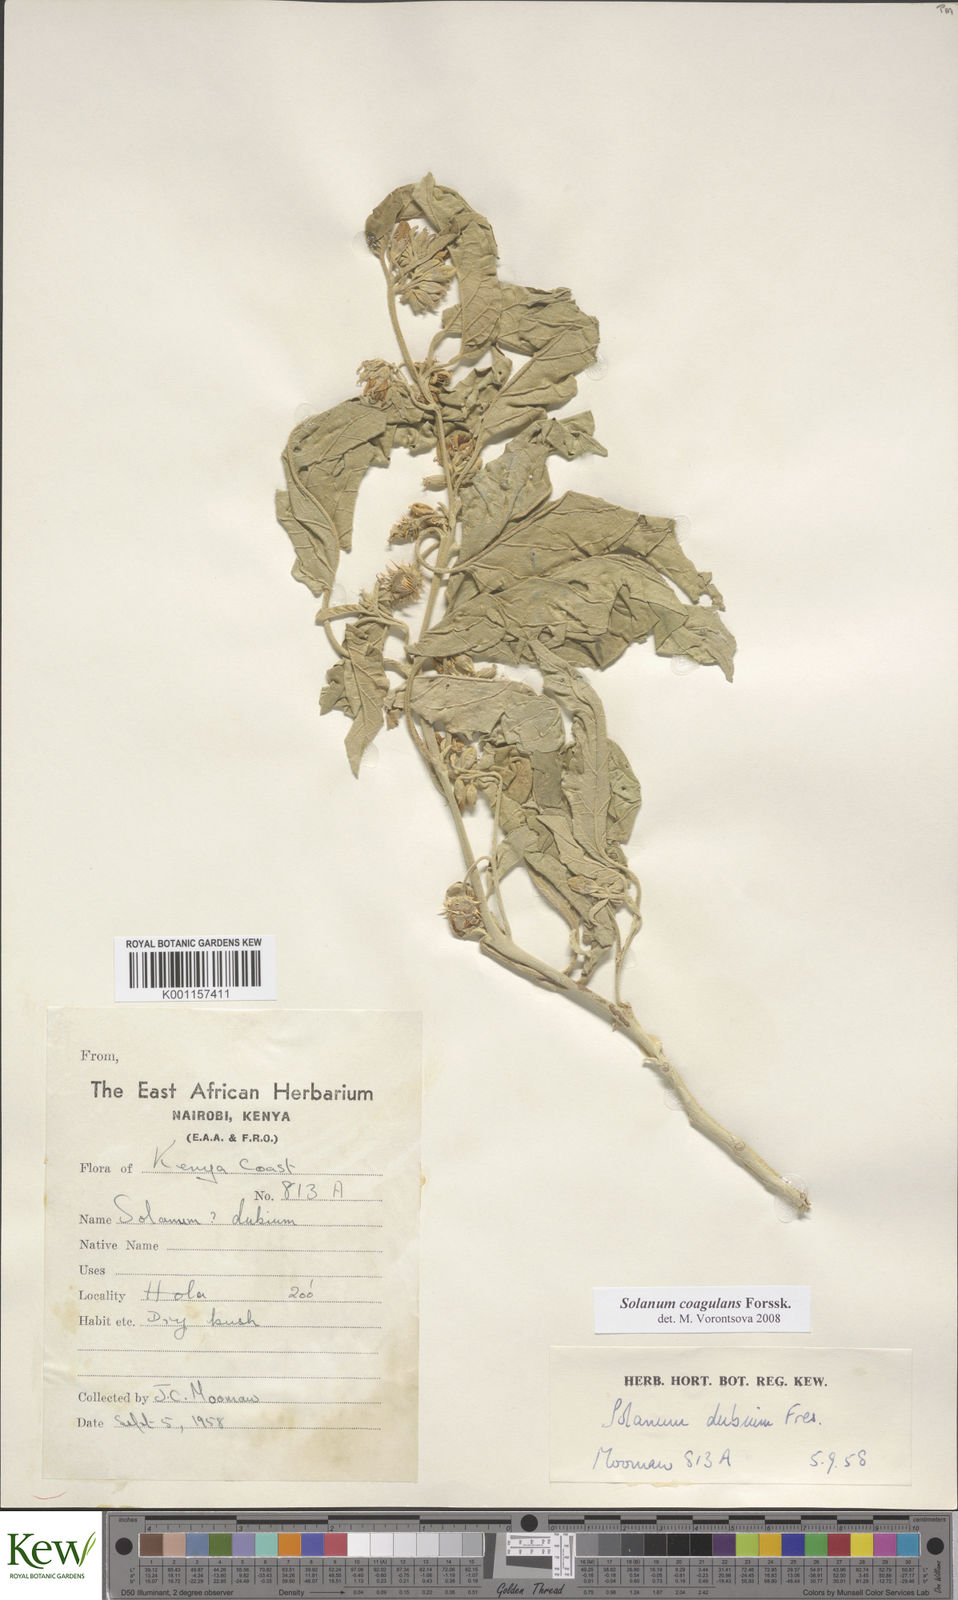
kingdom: Plantae
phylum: Tracheophyta
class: Magnoliopsida
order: Solanales
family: Solanaceae
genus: Solanum
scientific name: Solanum coagulans
